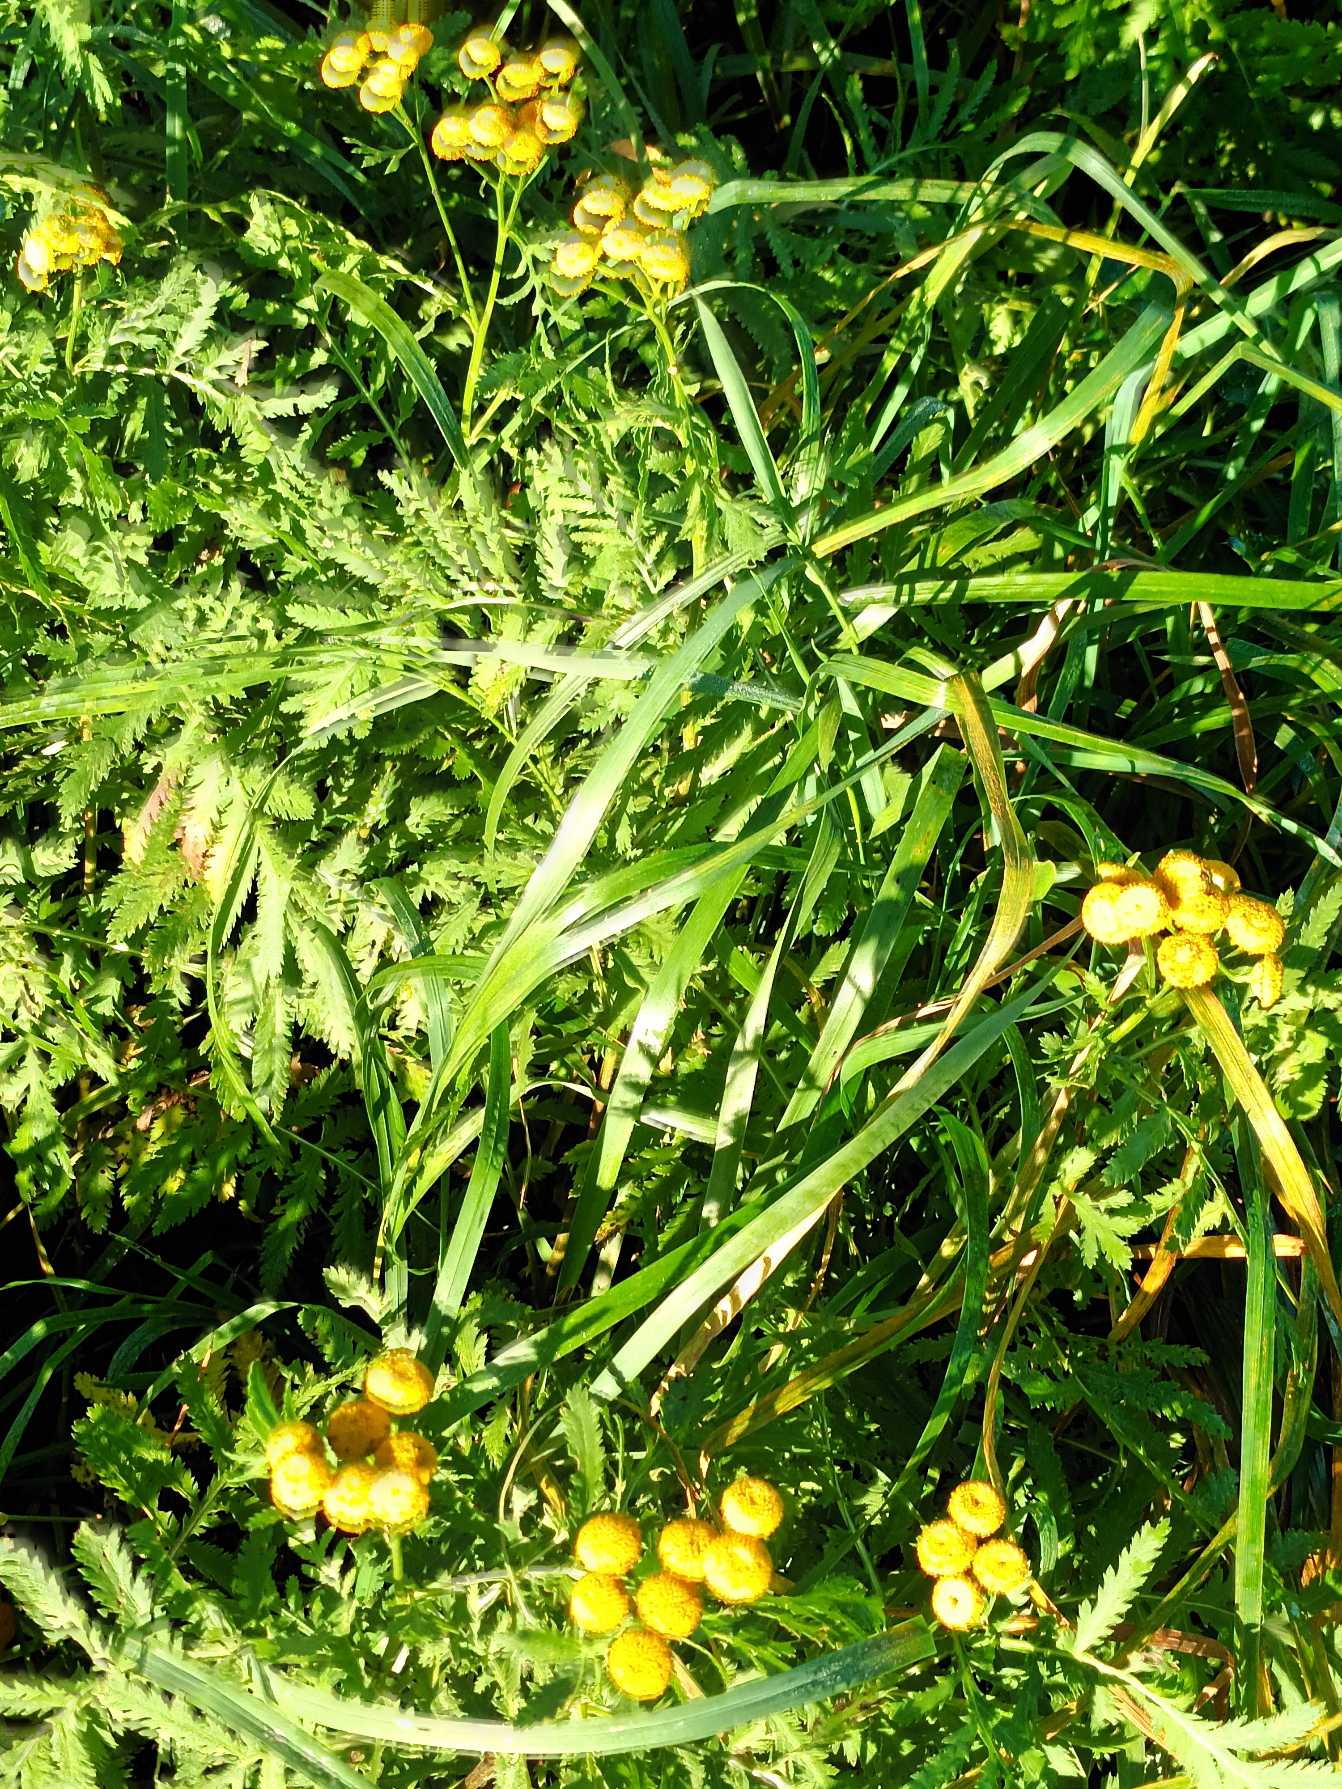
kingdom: Plantae
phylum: Tracheophyta
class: Magnoliopsida
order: Asterales
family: Asteraceae
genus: Tanacetum
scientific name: Tanacetum vulgare
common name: Rejnfan
